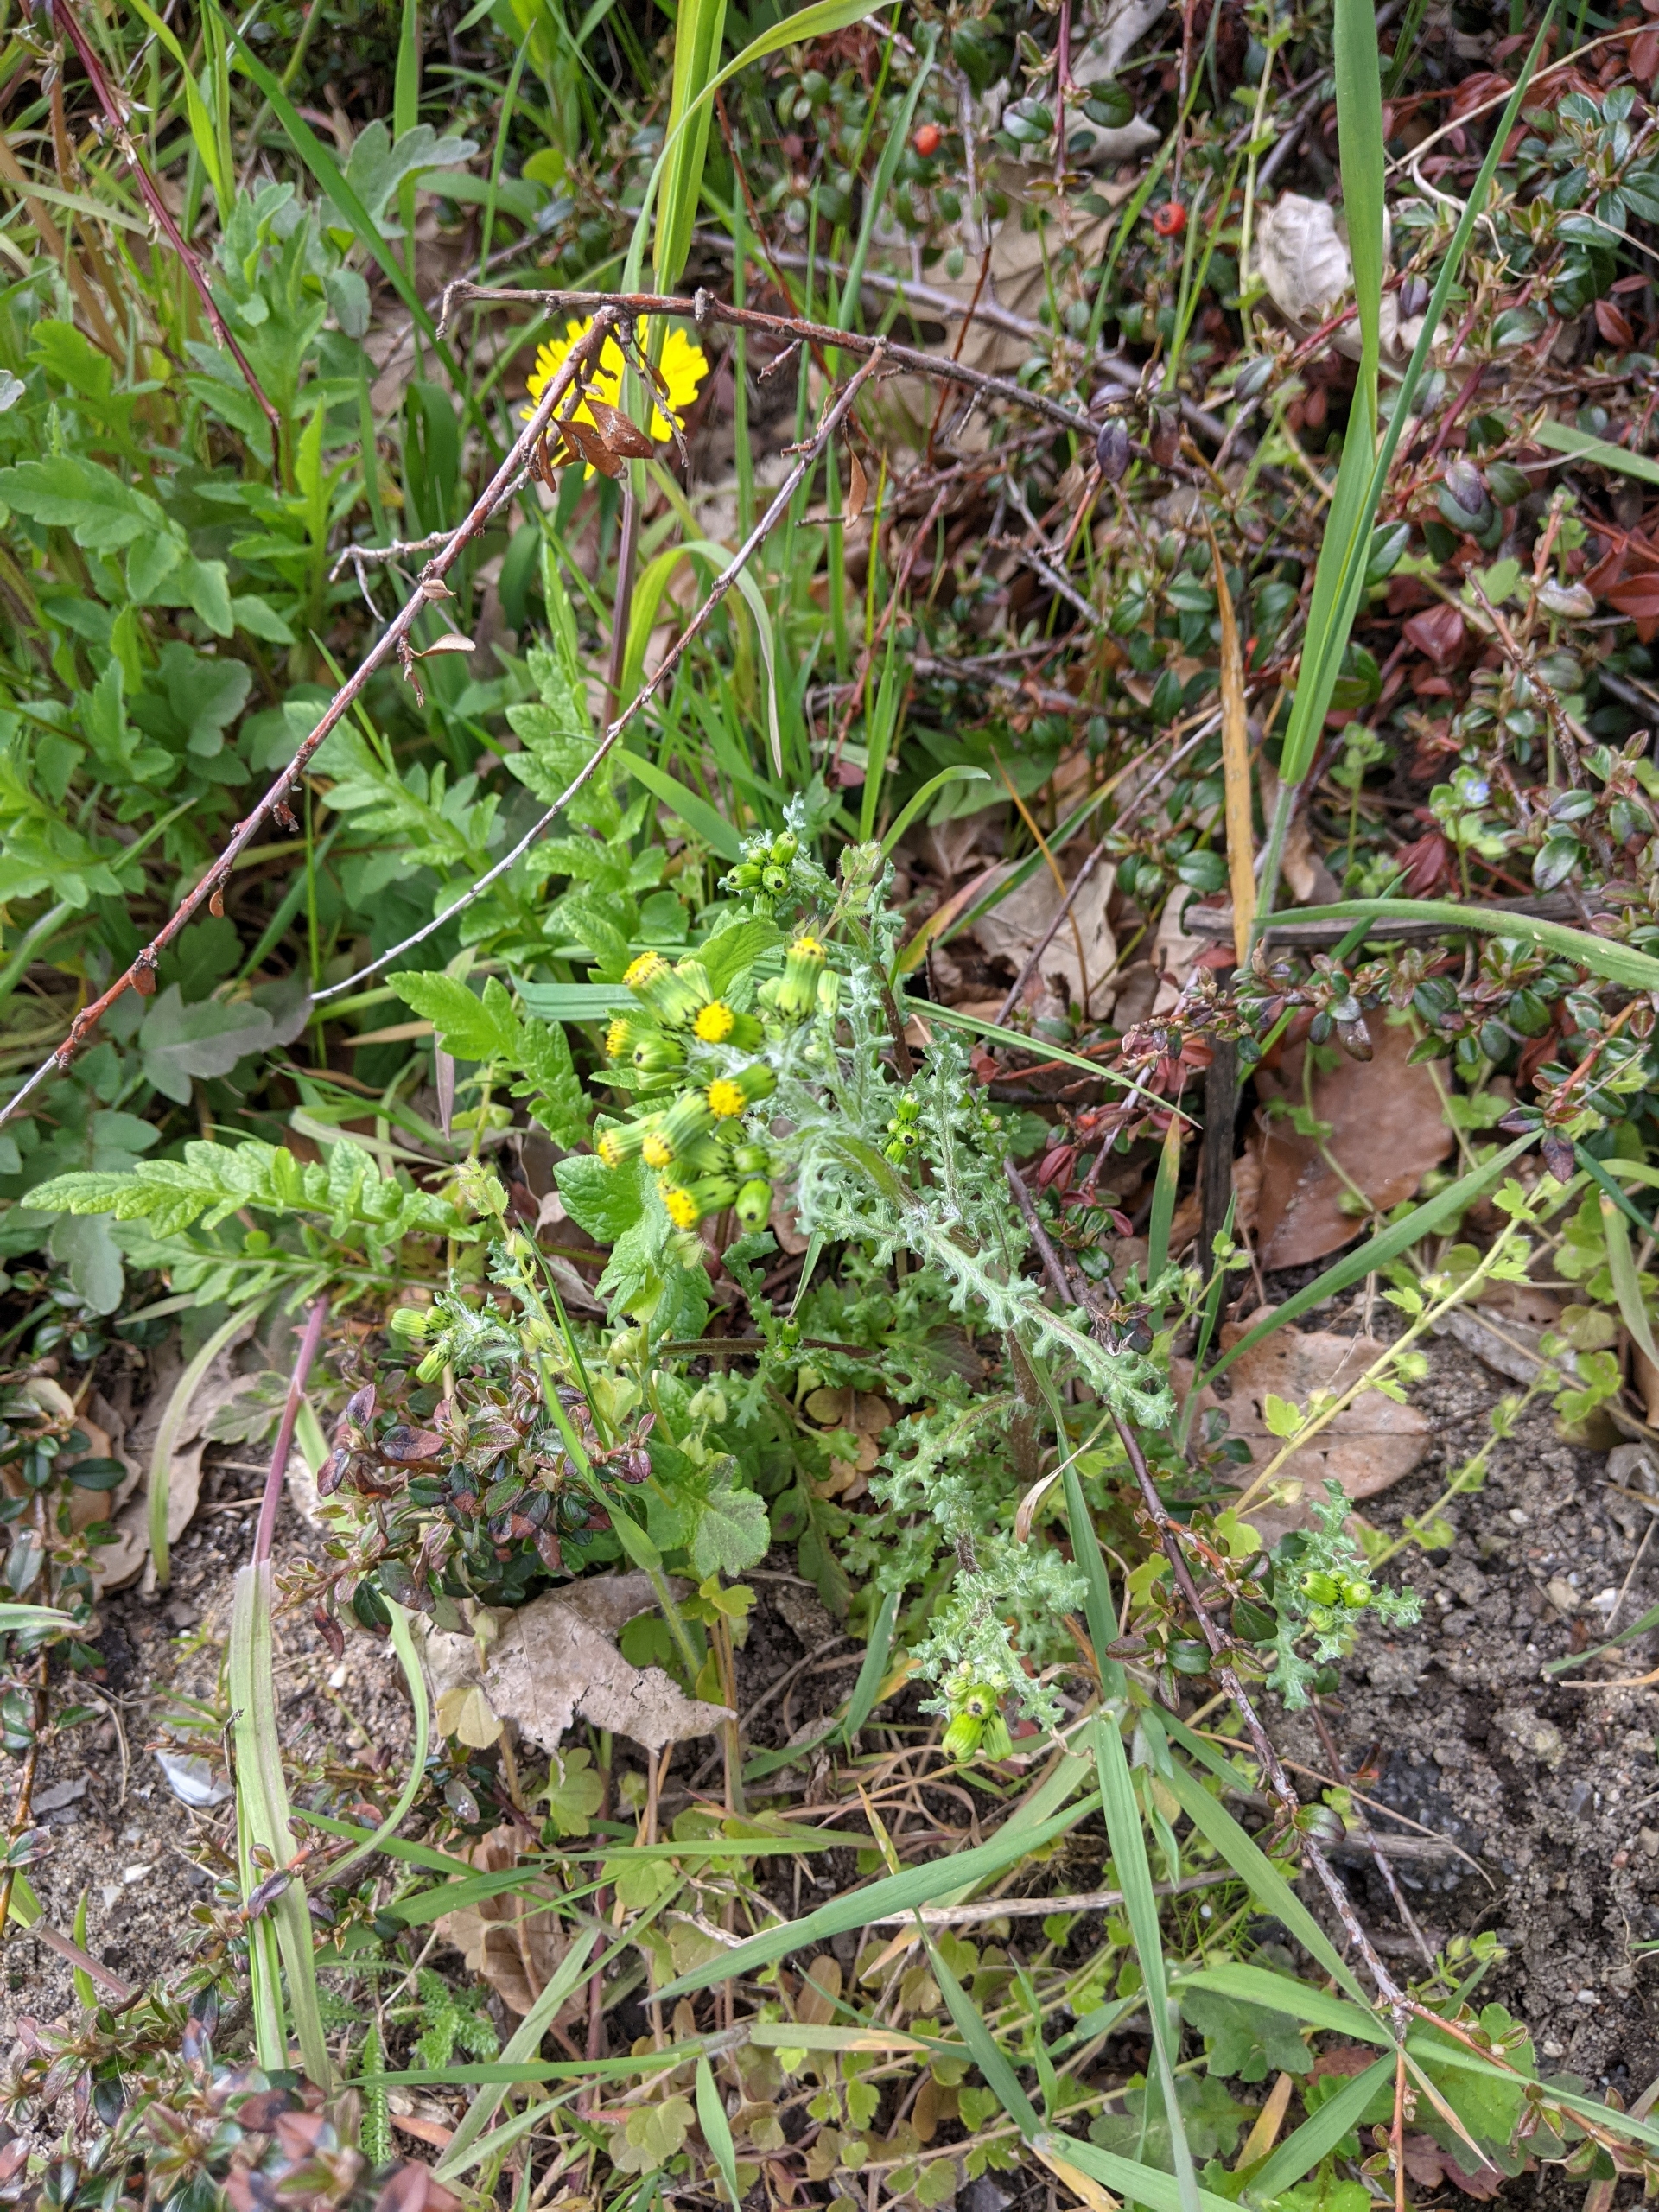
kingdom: Plantae
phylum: Tracheophyta
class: Magnoliopsida
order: Asterales
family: Asteraceae
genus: Senecio
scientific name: Senecio vulgaris
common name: Almindelig brandbæger
